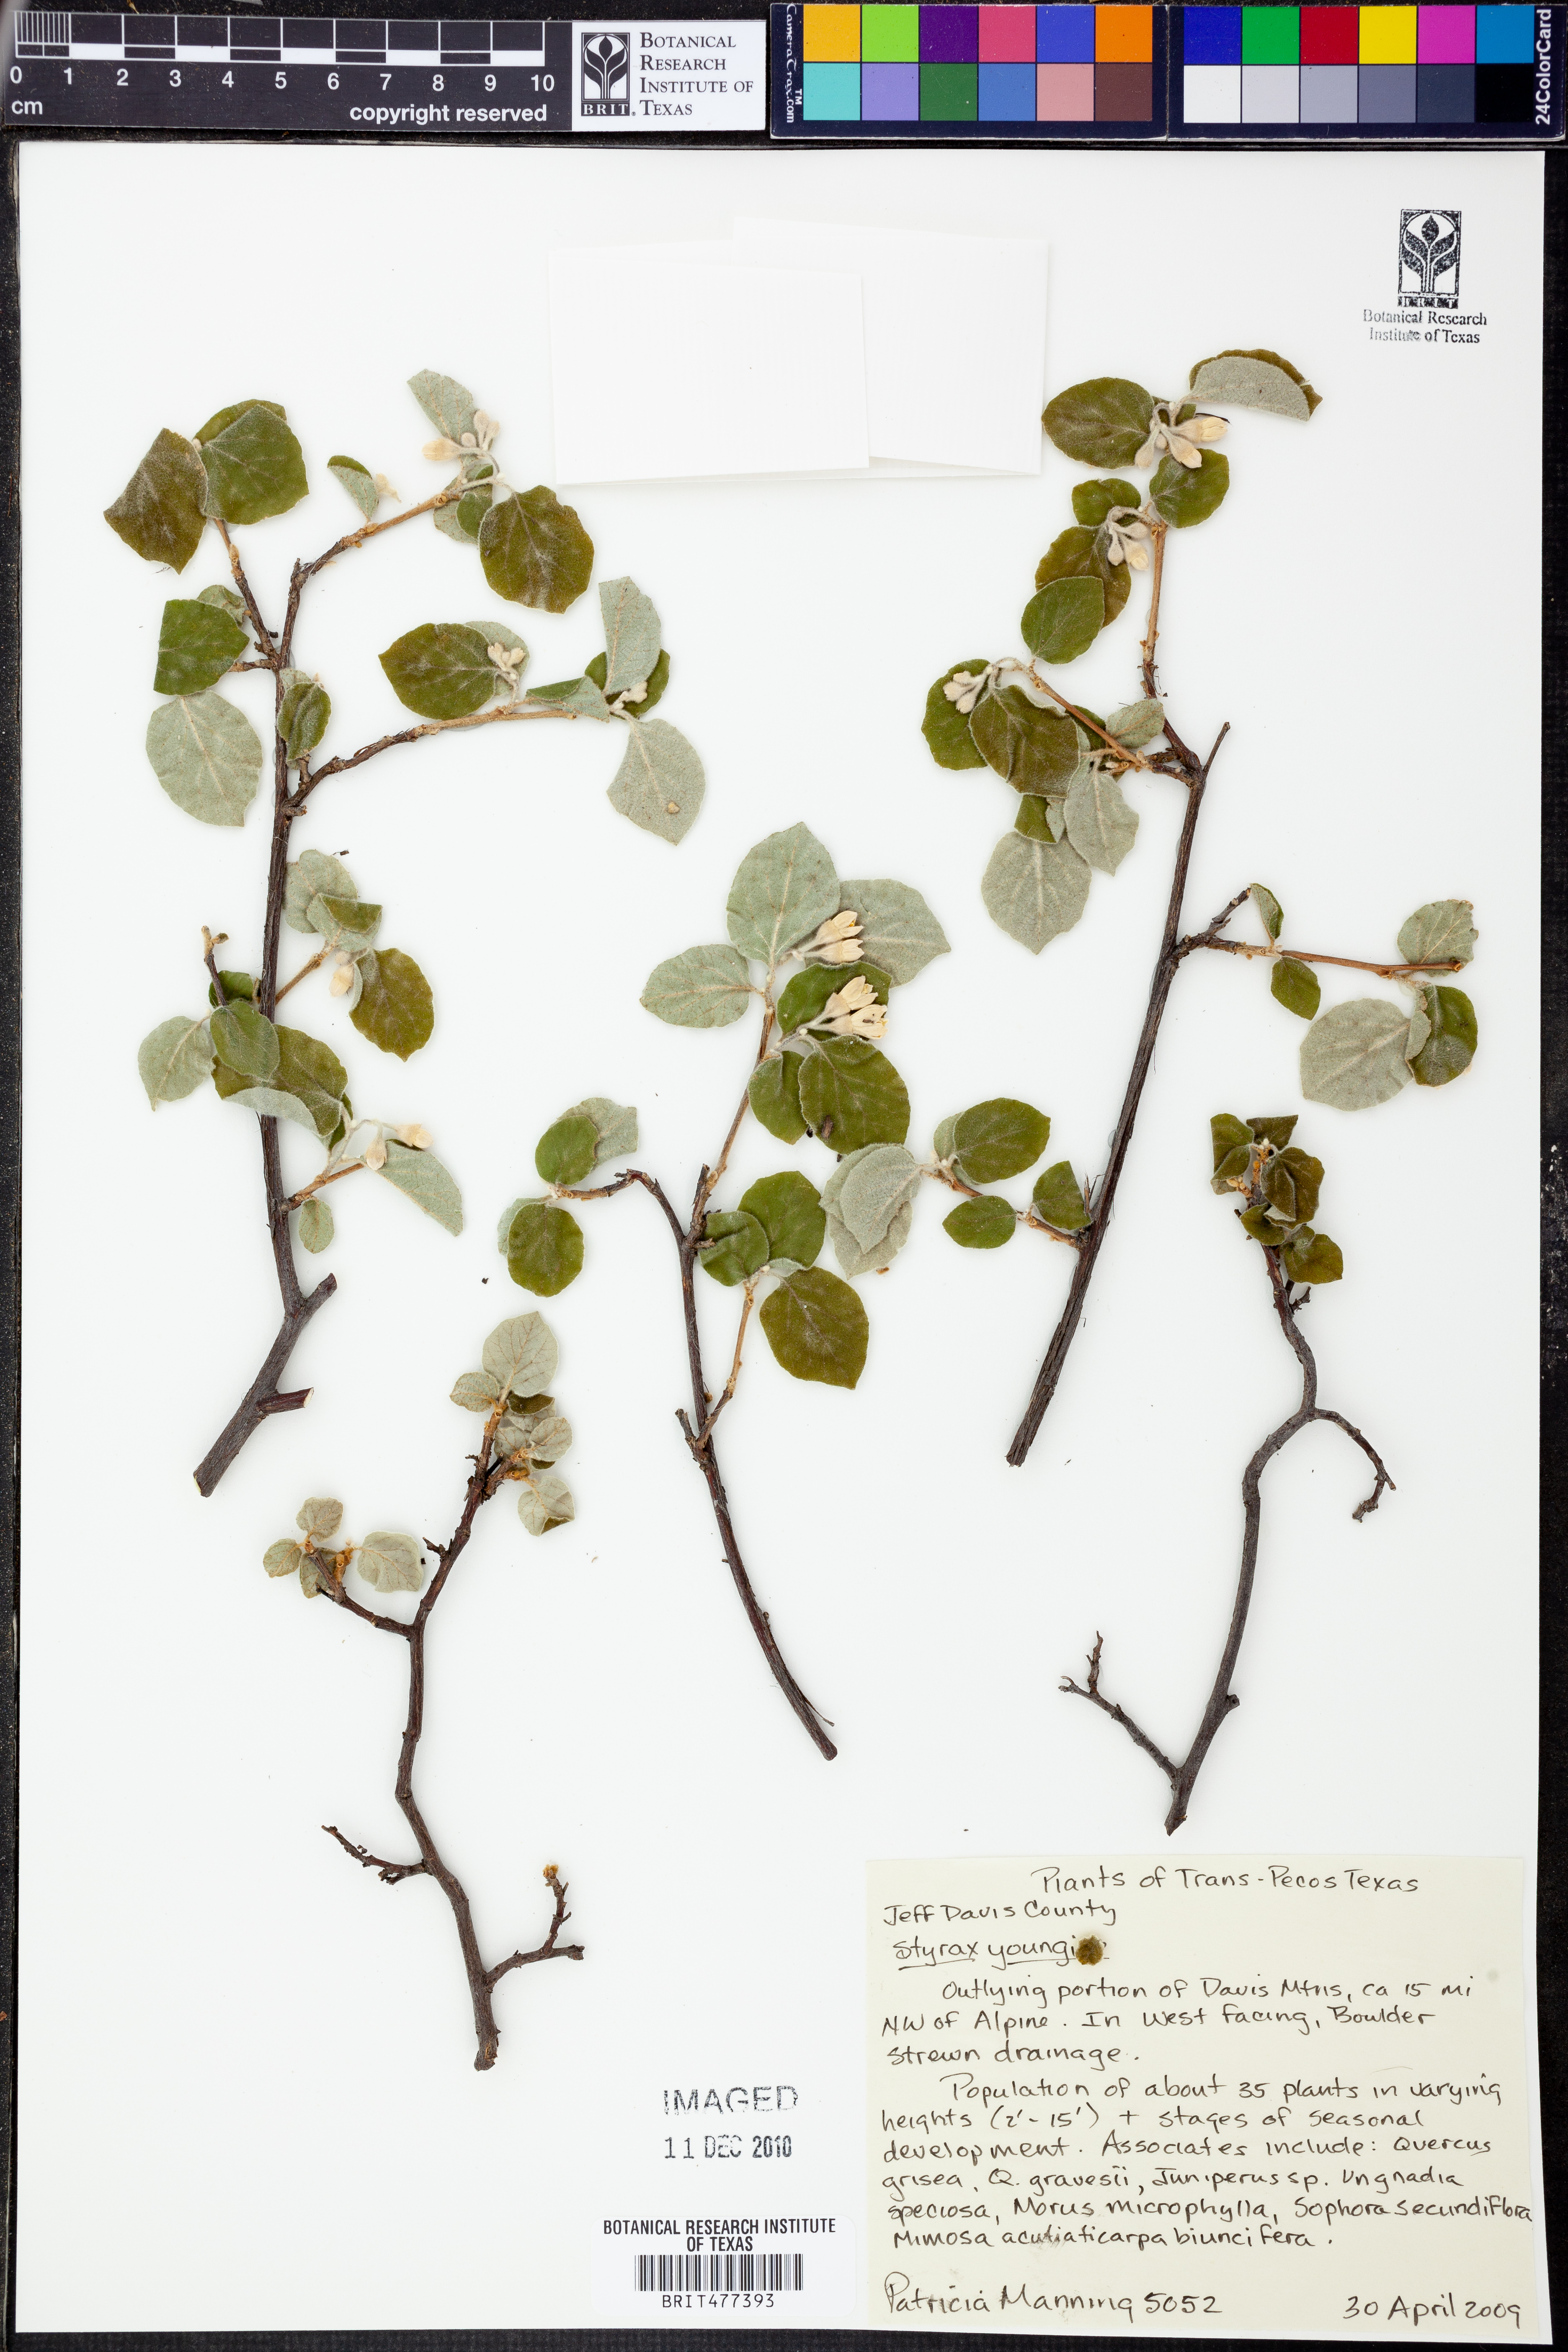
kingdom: Plantae
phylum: Tracheophyta
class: Magnoliopsida
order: Ericales
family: Styracaceae
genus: Styrax
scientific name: Styrax platanifolius
